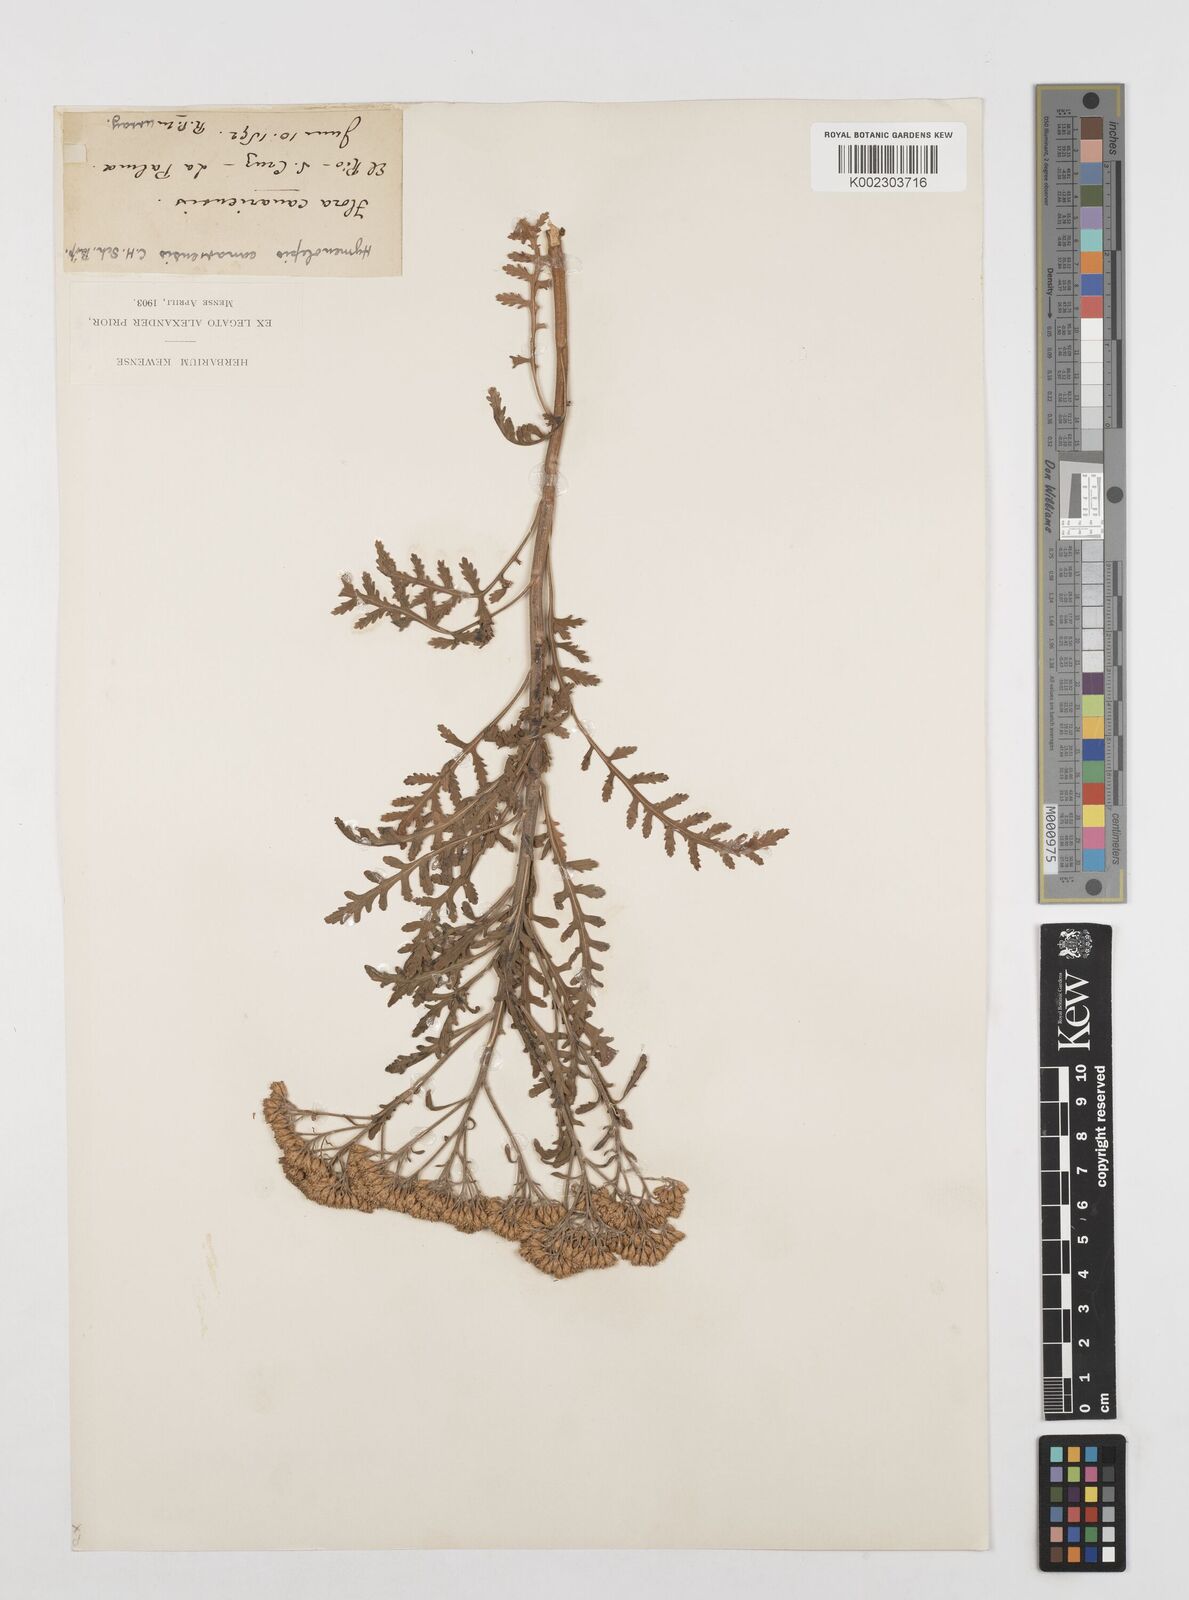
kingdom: Plantae
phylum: Tracheophyta
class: Magnoliopsida
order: Asterales
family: Asteraceae
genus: Gonospermum
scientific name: Gonospermum canariense
